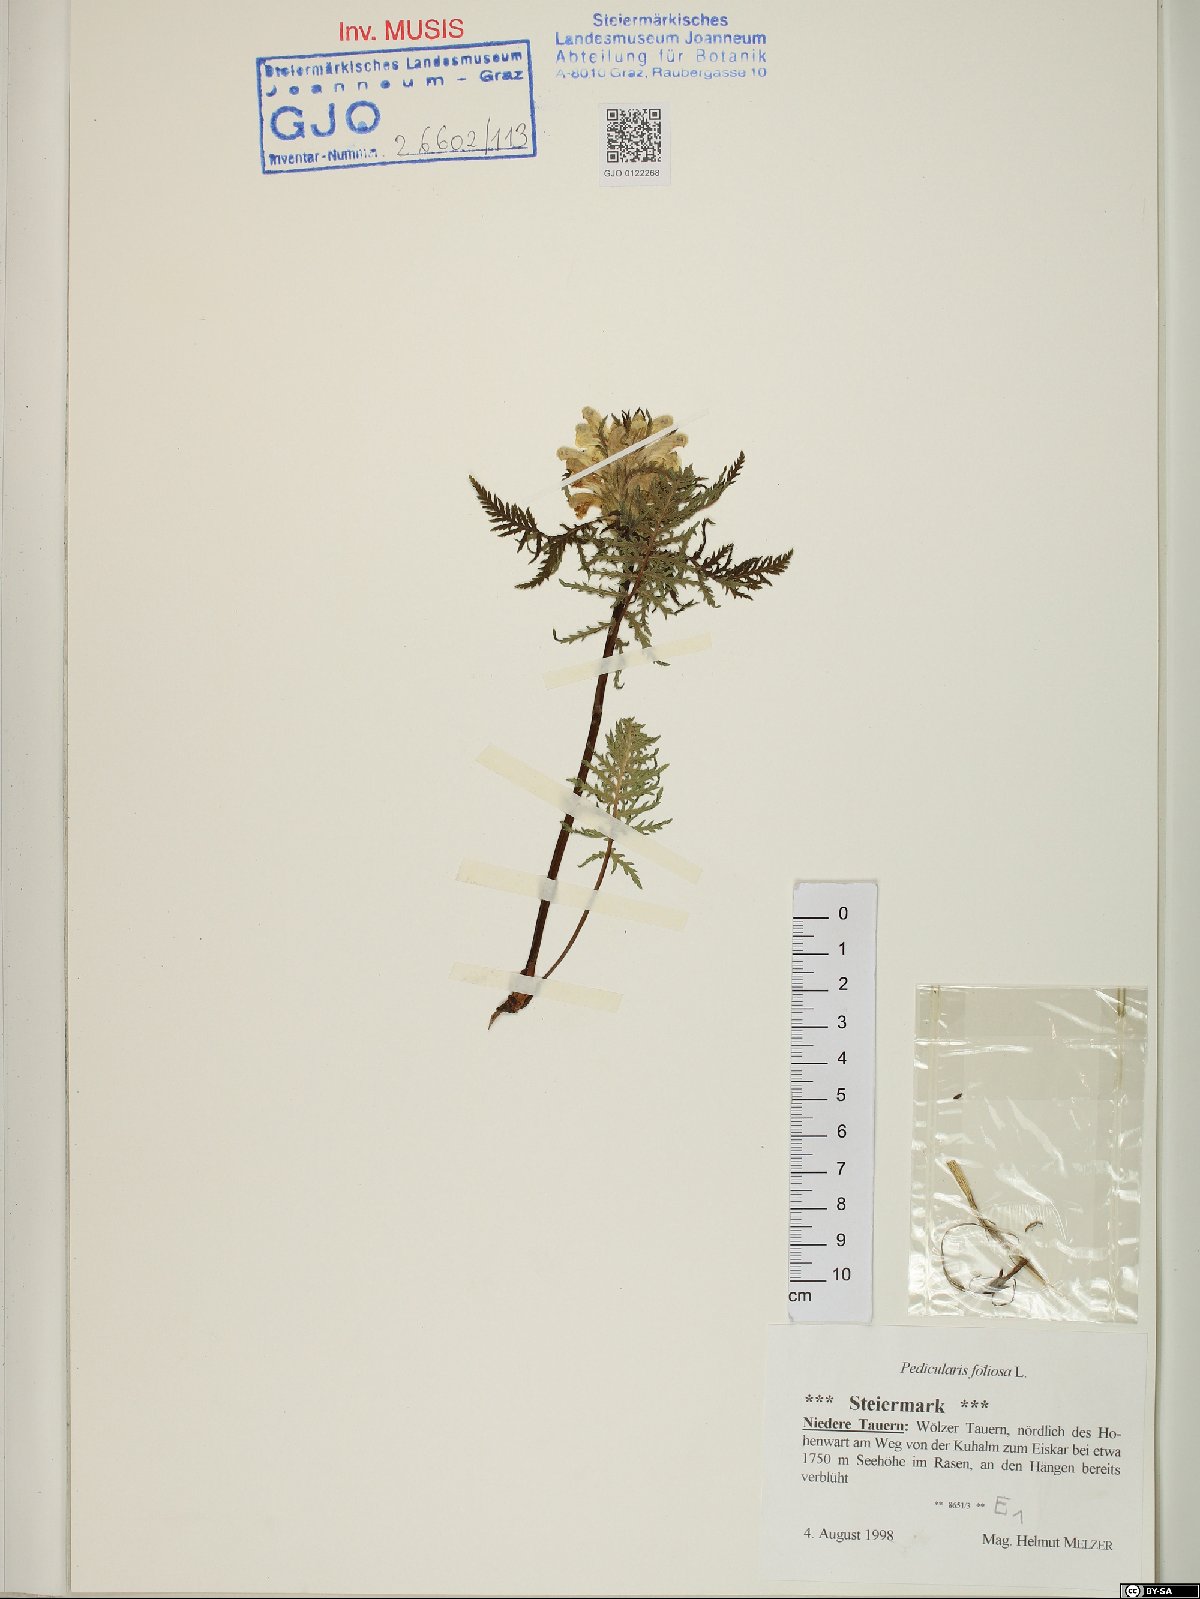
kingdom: Plantae
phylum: Tracheophyta
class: Magnoliopsida
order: Lamiales
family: Orobanchaceae
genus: Pedicularis
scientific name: Pedicularis foliosa
